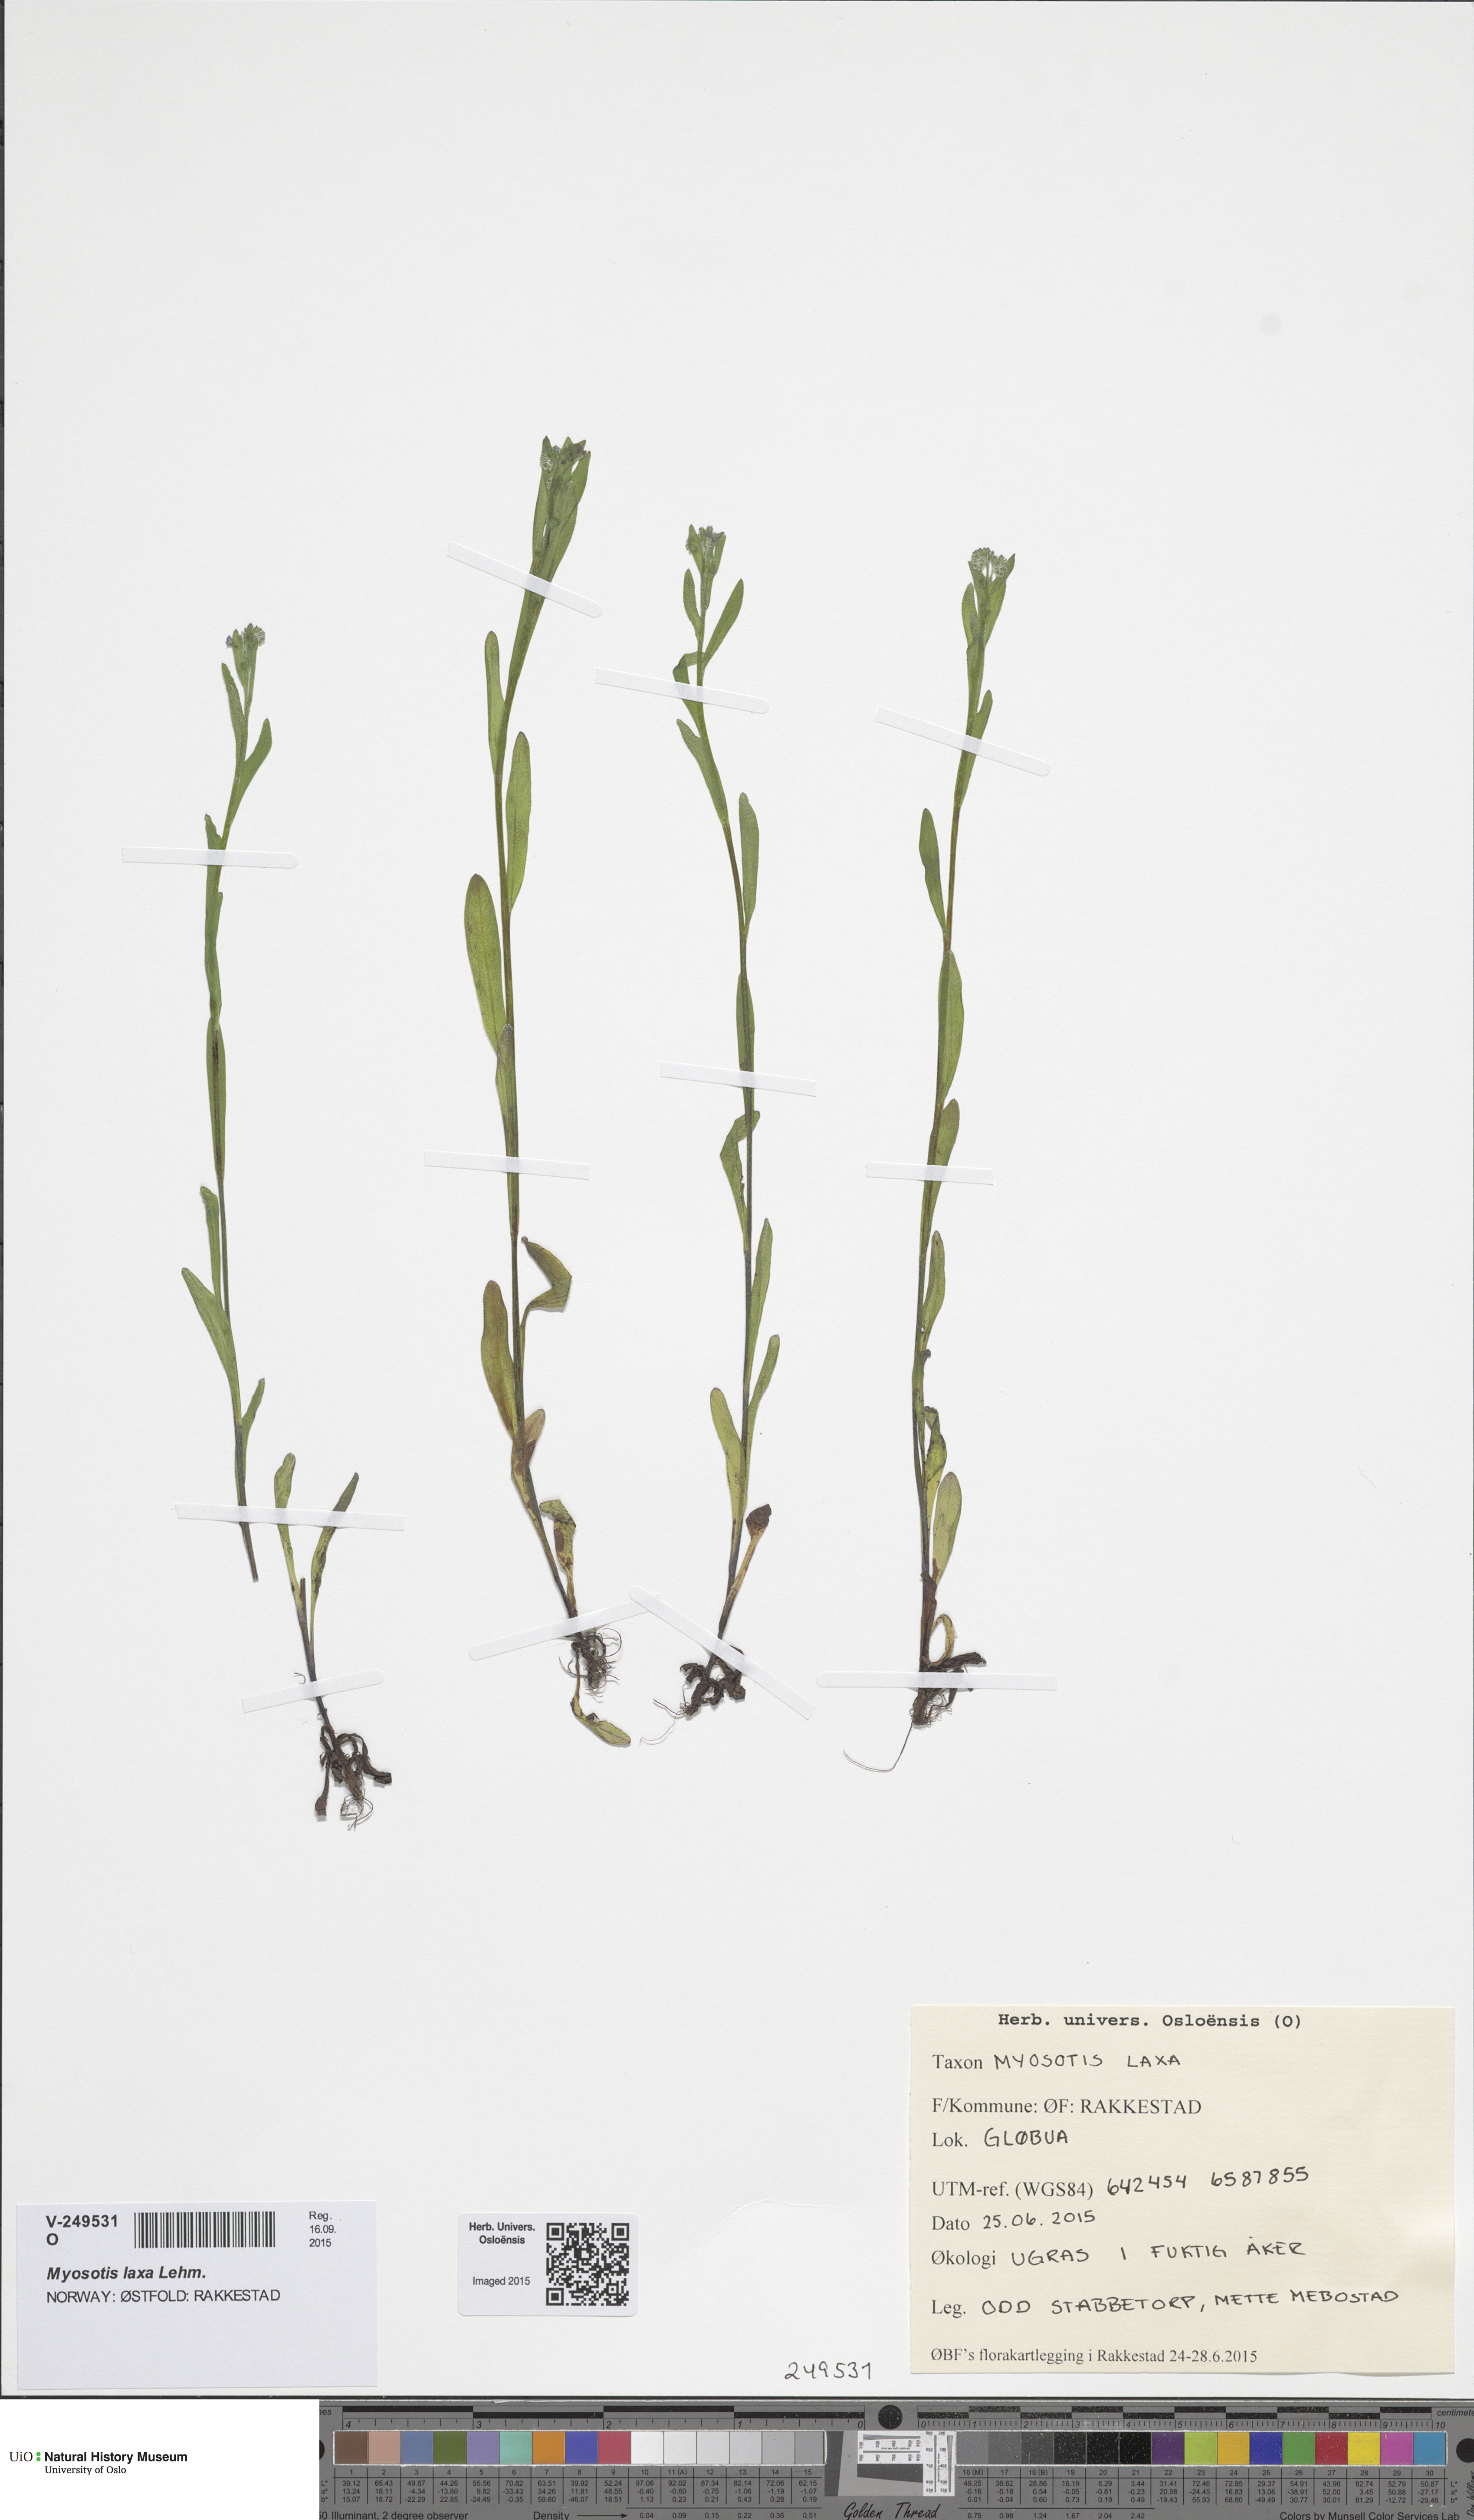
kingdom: Plantae
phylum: Tracheophyta
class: Magnoliopsida
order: Boraginales
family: Boraginaceae
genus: Myosotis
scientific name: Myosotis scorpioides
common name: Water forget-me-not
